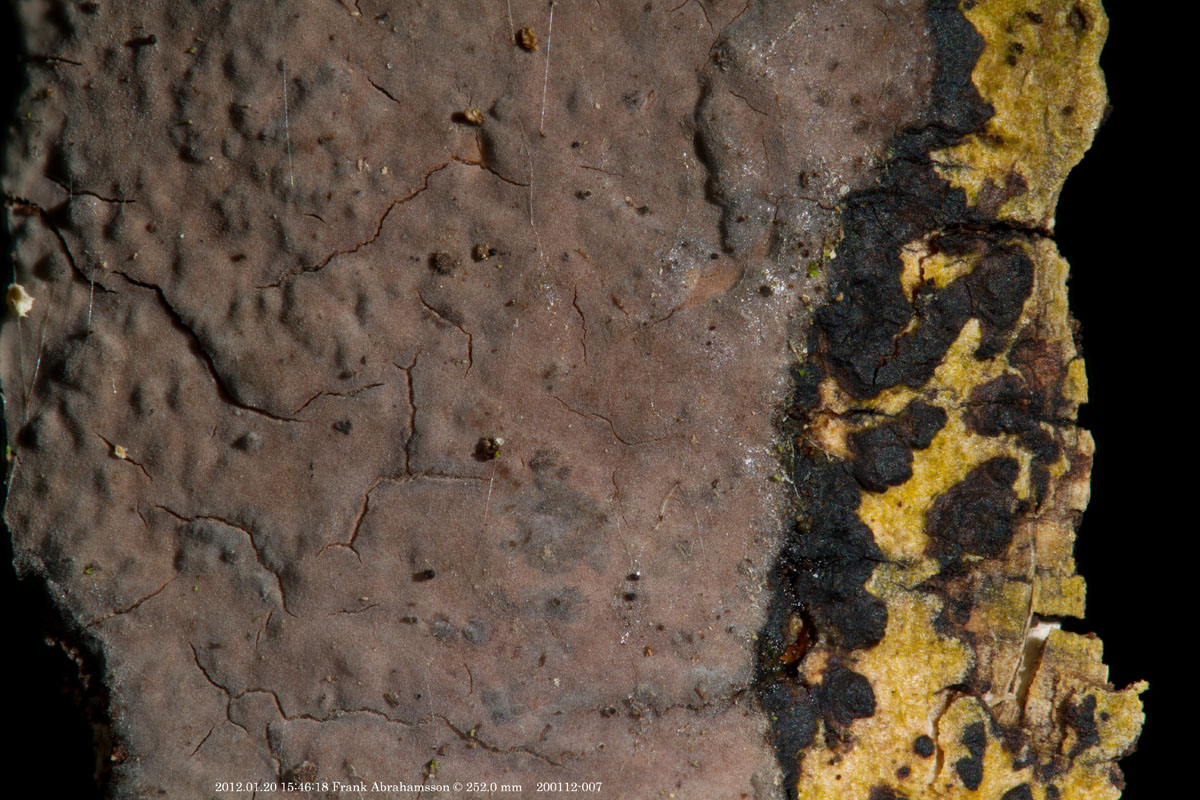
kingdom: Fungi
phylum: Basidiomycota
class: Agaricomycetes
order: Russulales
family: Peniophoraceae
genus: Peniophora
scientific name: Peniophora limitata
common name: mørkrandet voksskind
